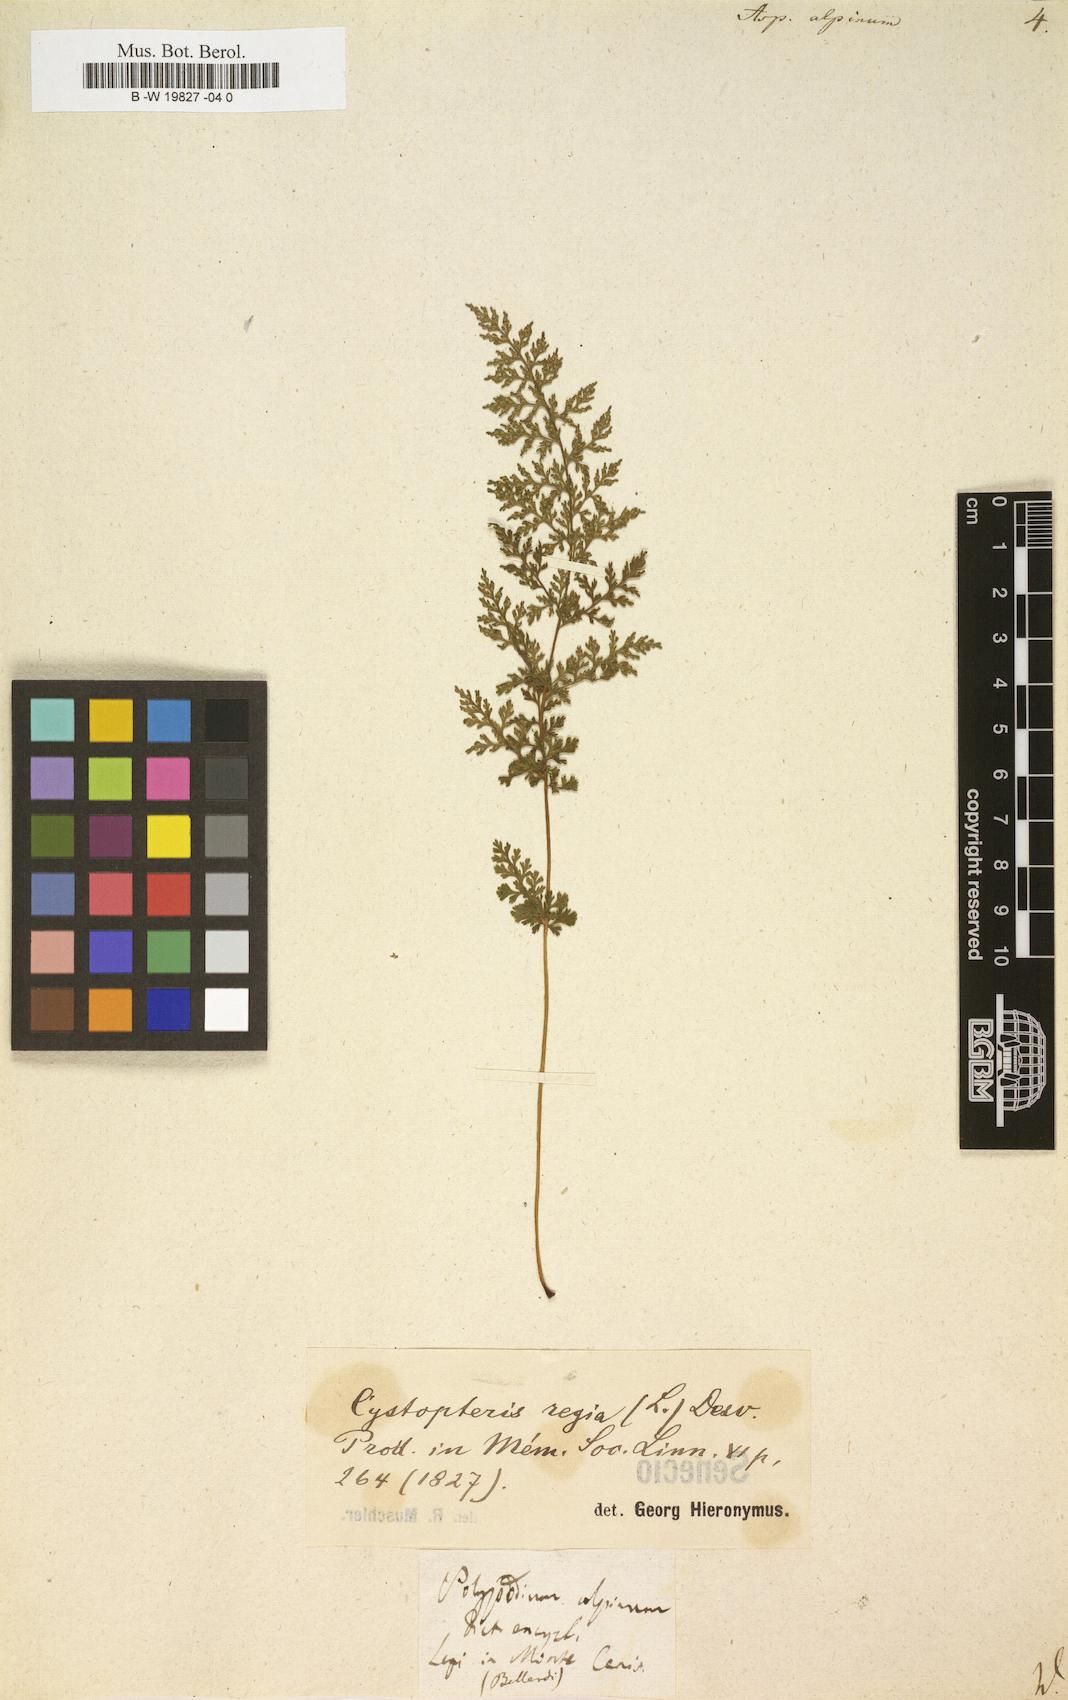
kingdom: Plantae
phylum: Tracheophyta
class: Polypodiopsida
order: Polypodiales
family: Cystopteridaceae
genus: Cystopteris
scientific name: Cystopteris alpina
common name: Alpine bladder-fern
